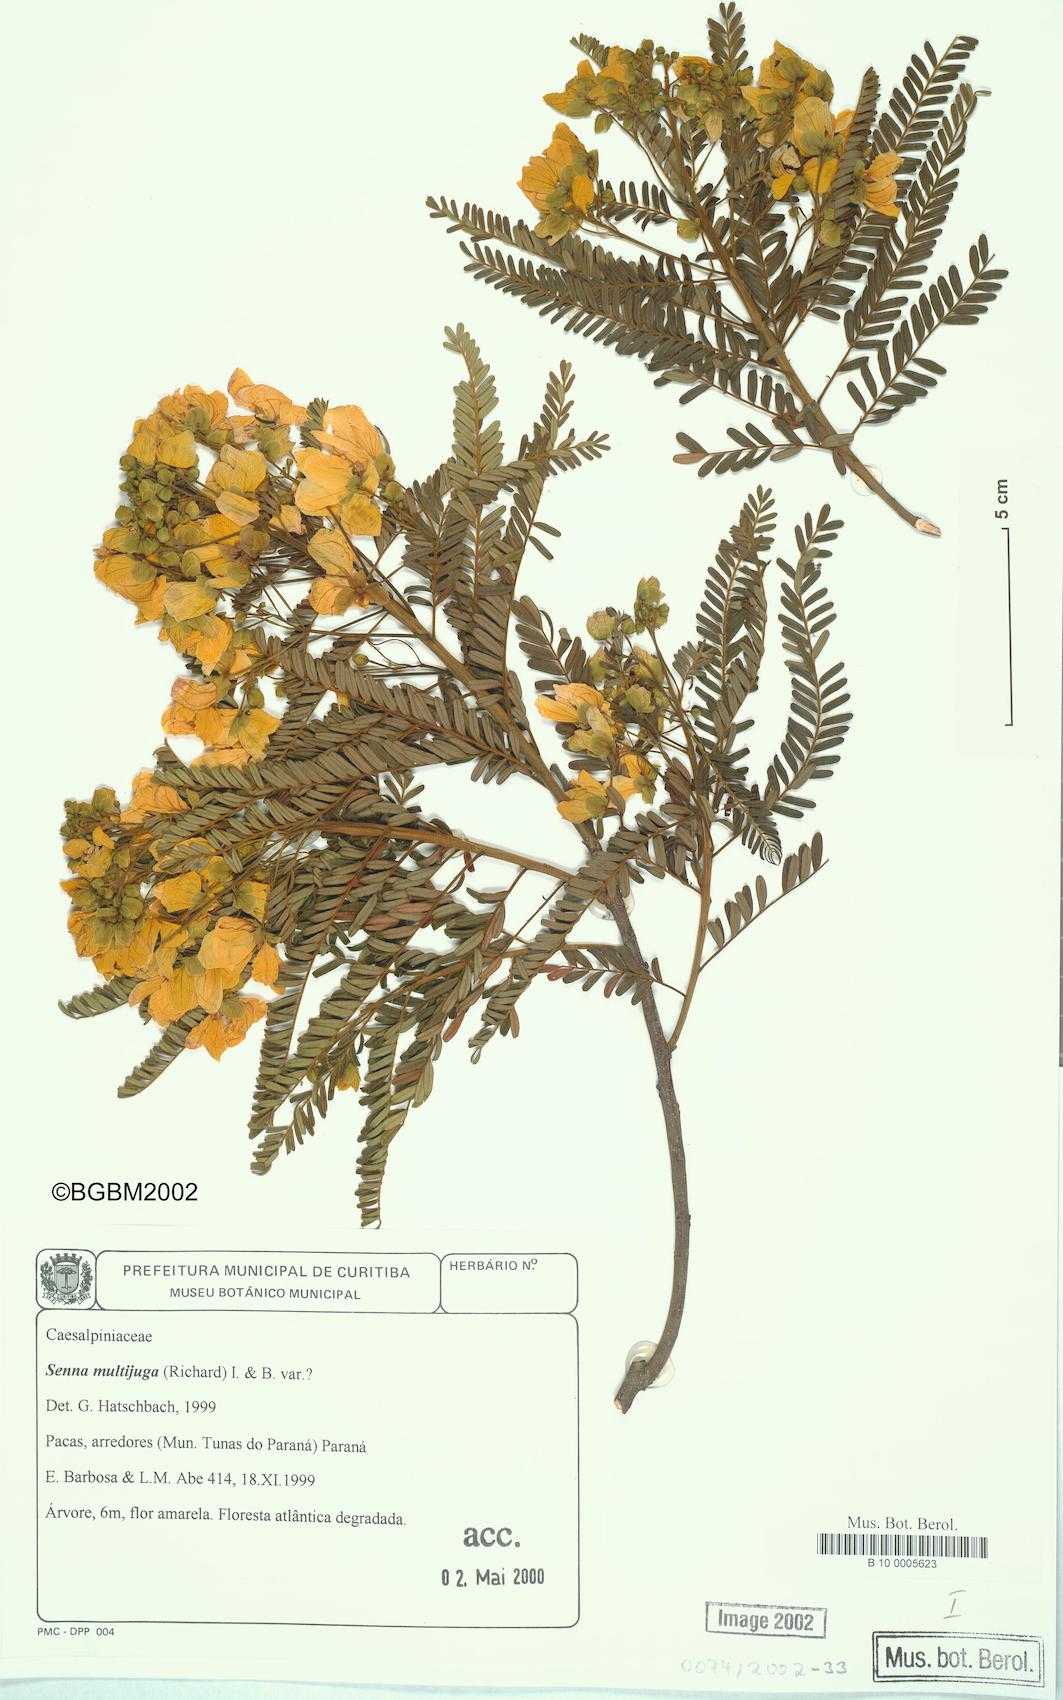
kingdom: Plantae
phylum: Tracheophyta
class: Magnoliopsida
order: Fabales
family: Fabaceae
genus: Senna
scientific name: Senna multijuga
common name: False sicklepod
